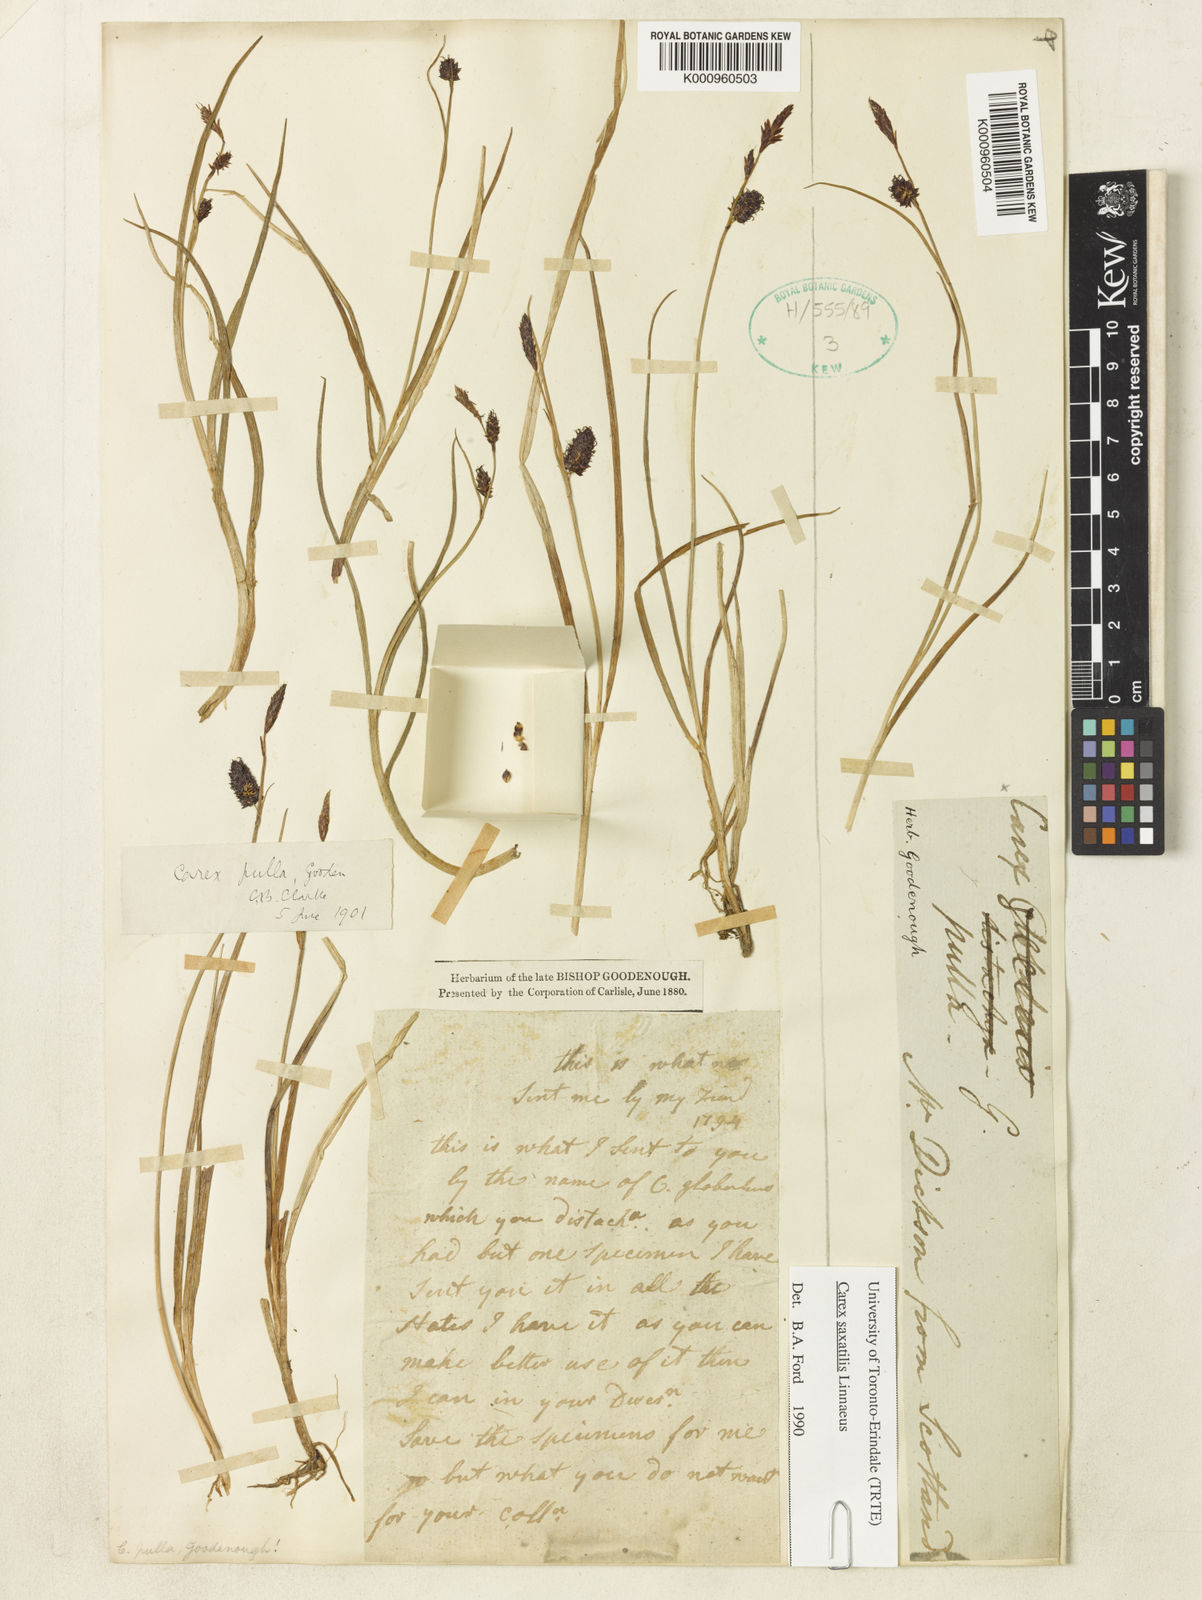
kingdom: Plantae
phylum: Tracheophyta
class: Liliopsida
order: Poales
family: Cyperaceae
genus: Carex
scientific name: Carex saxatilis
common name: Russet sedge
